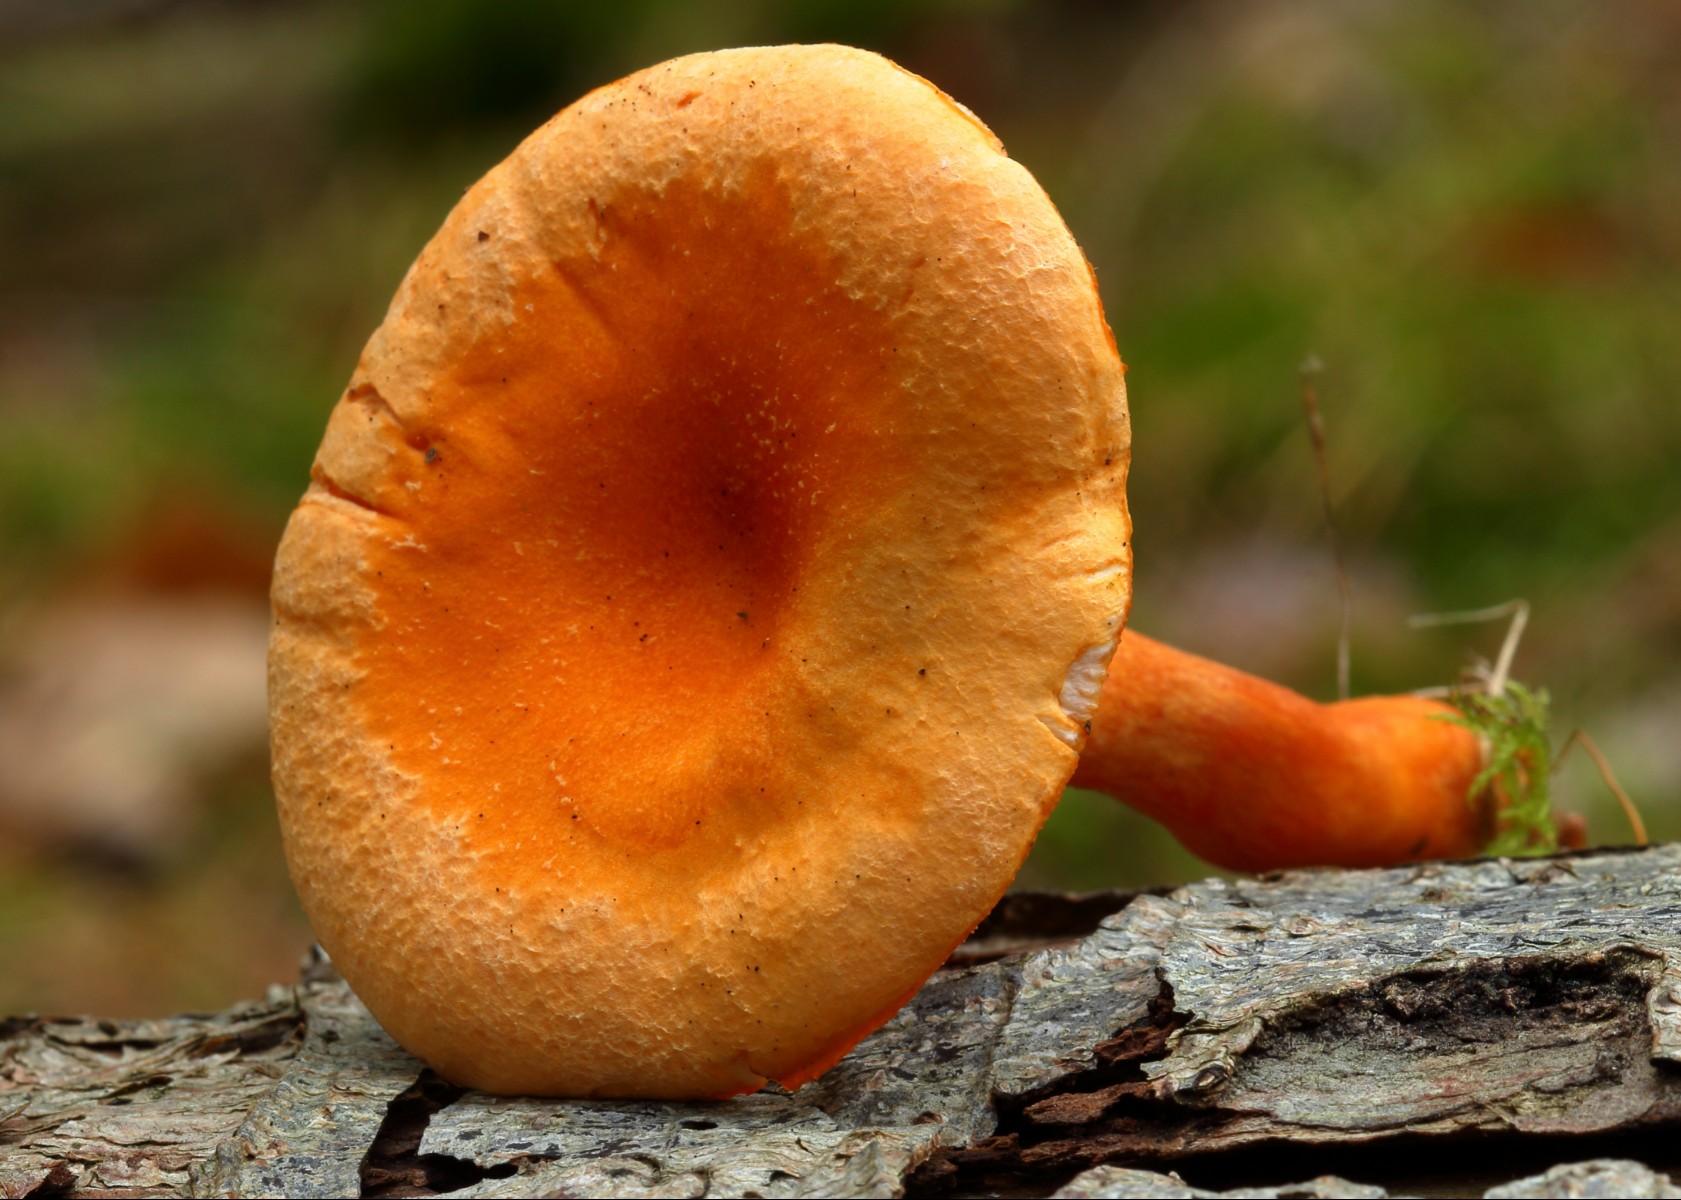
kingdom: Fungi
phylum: Basidiomycota
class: Agaricomycetes
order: Boletales
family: Hygrophoropsidaceae
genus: Hygrophoropsis
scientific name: Hygrophoropsis aurantiaca
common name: almindelig orangekantarel
